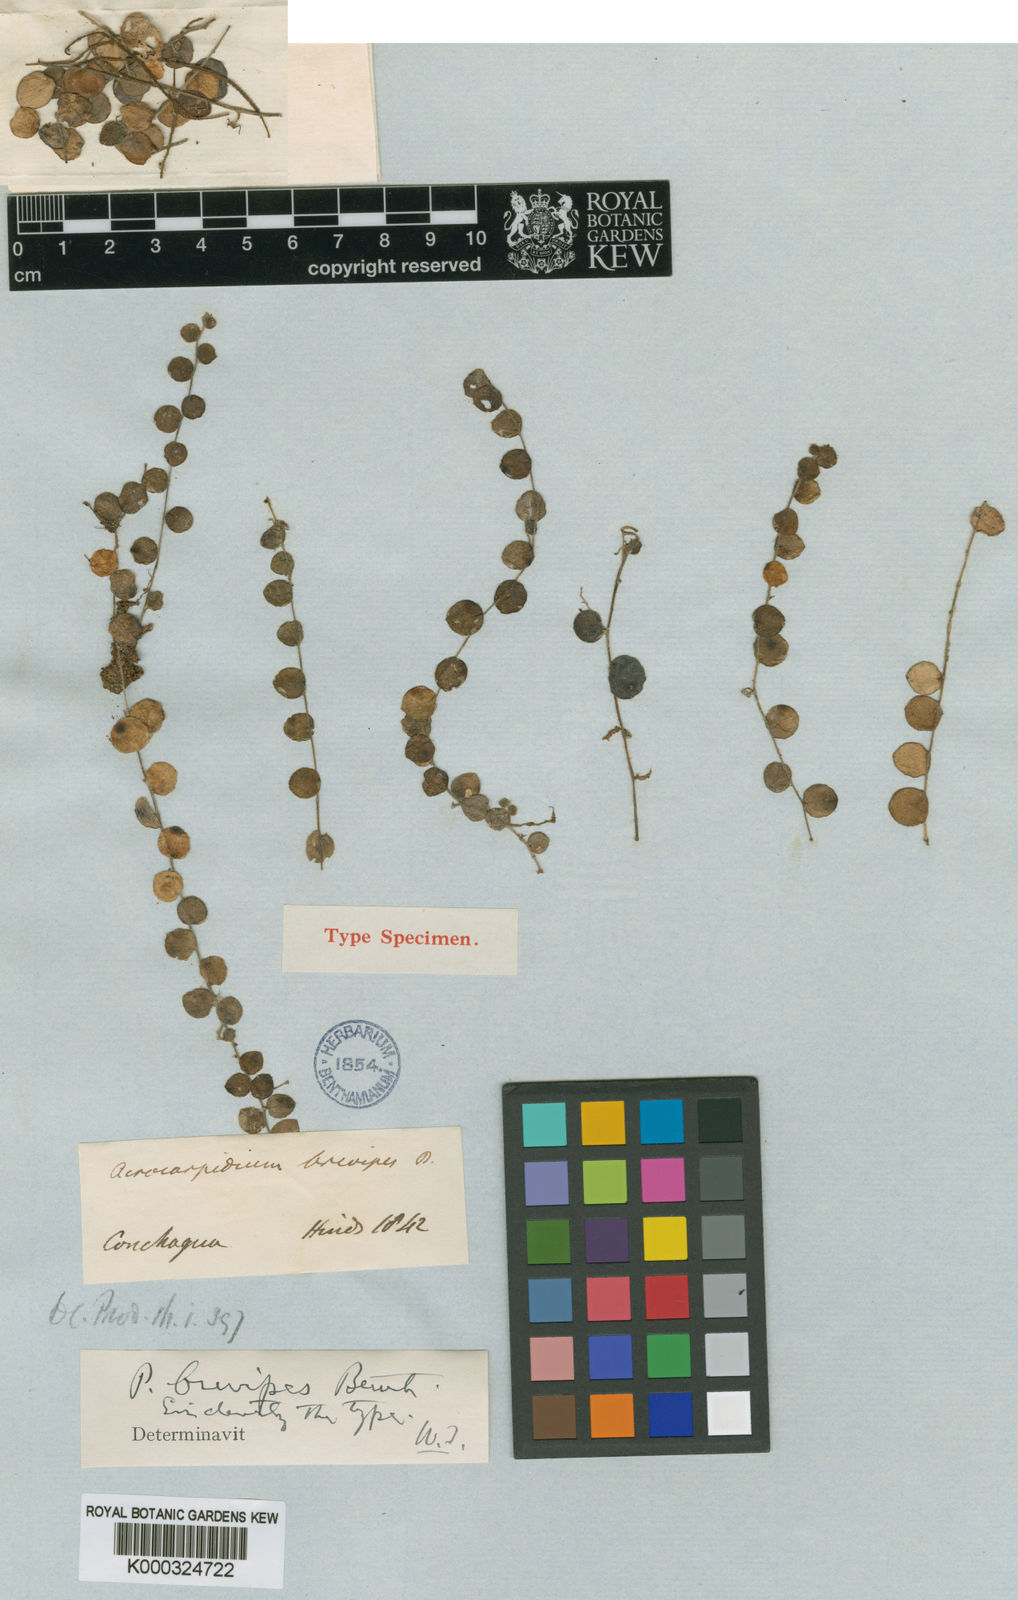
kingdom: Plantae
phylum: Tracheophyta
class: Magnoliopsida
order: Piperales
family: Piperaceae
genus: Peperomia
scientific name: Peperomia rotundifolia
